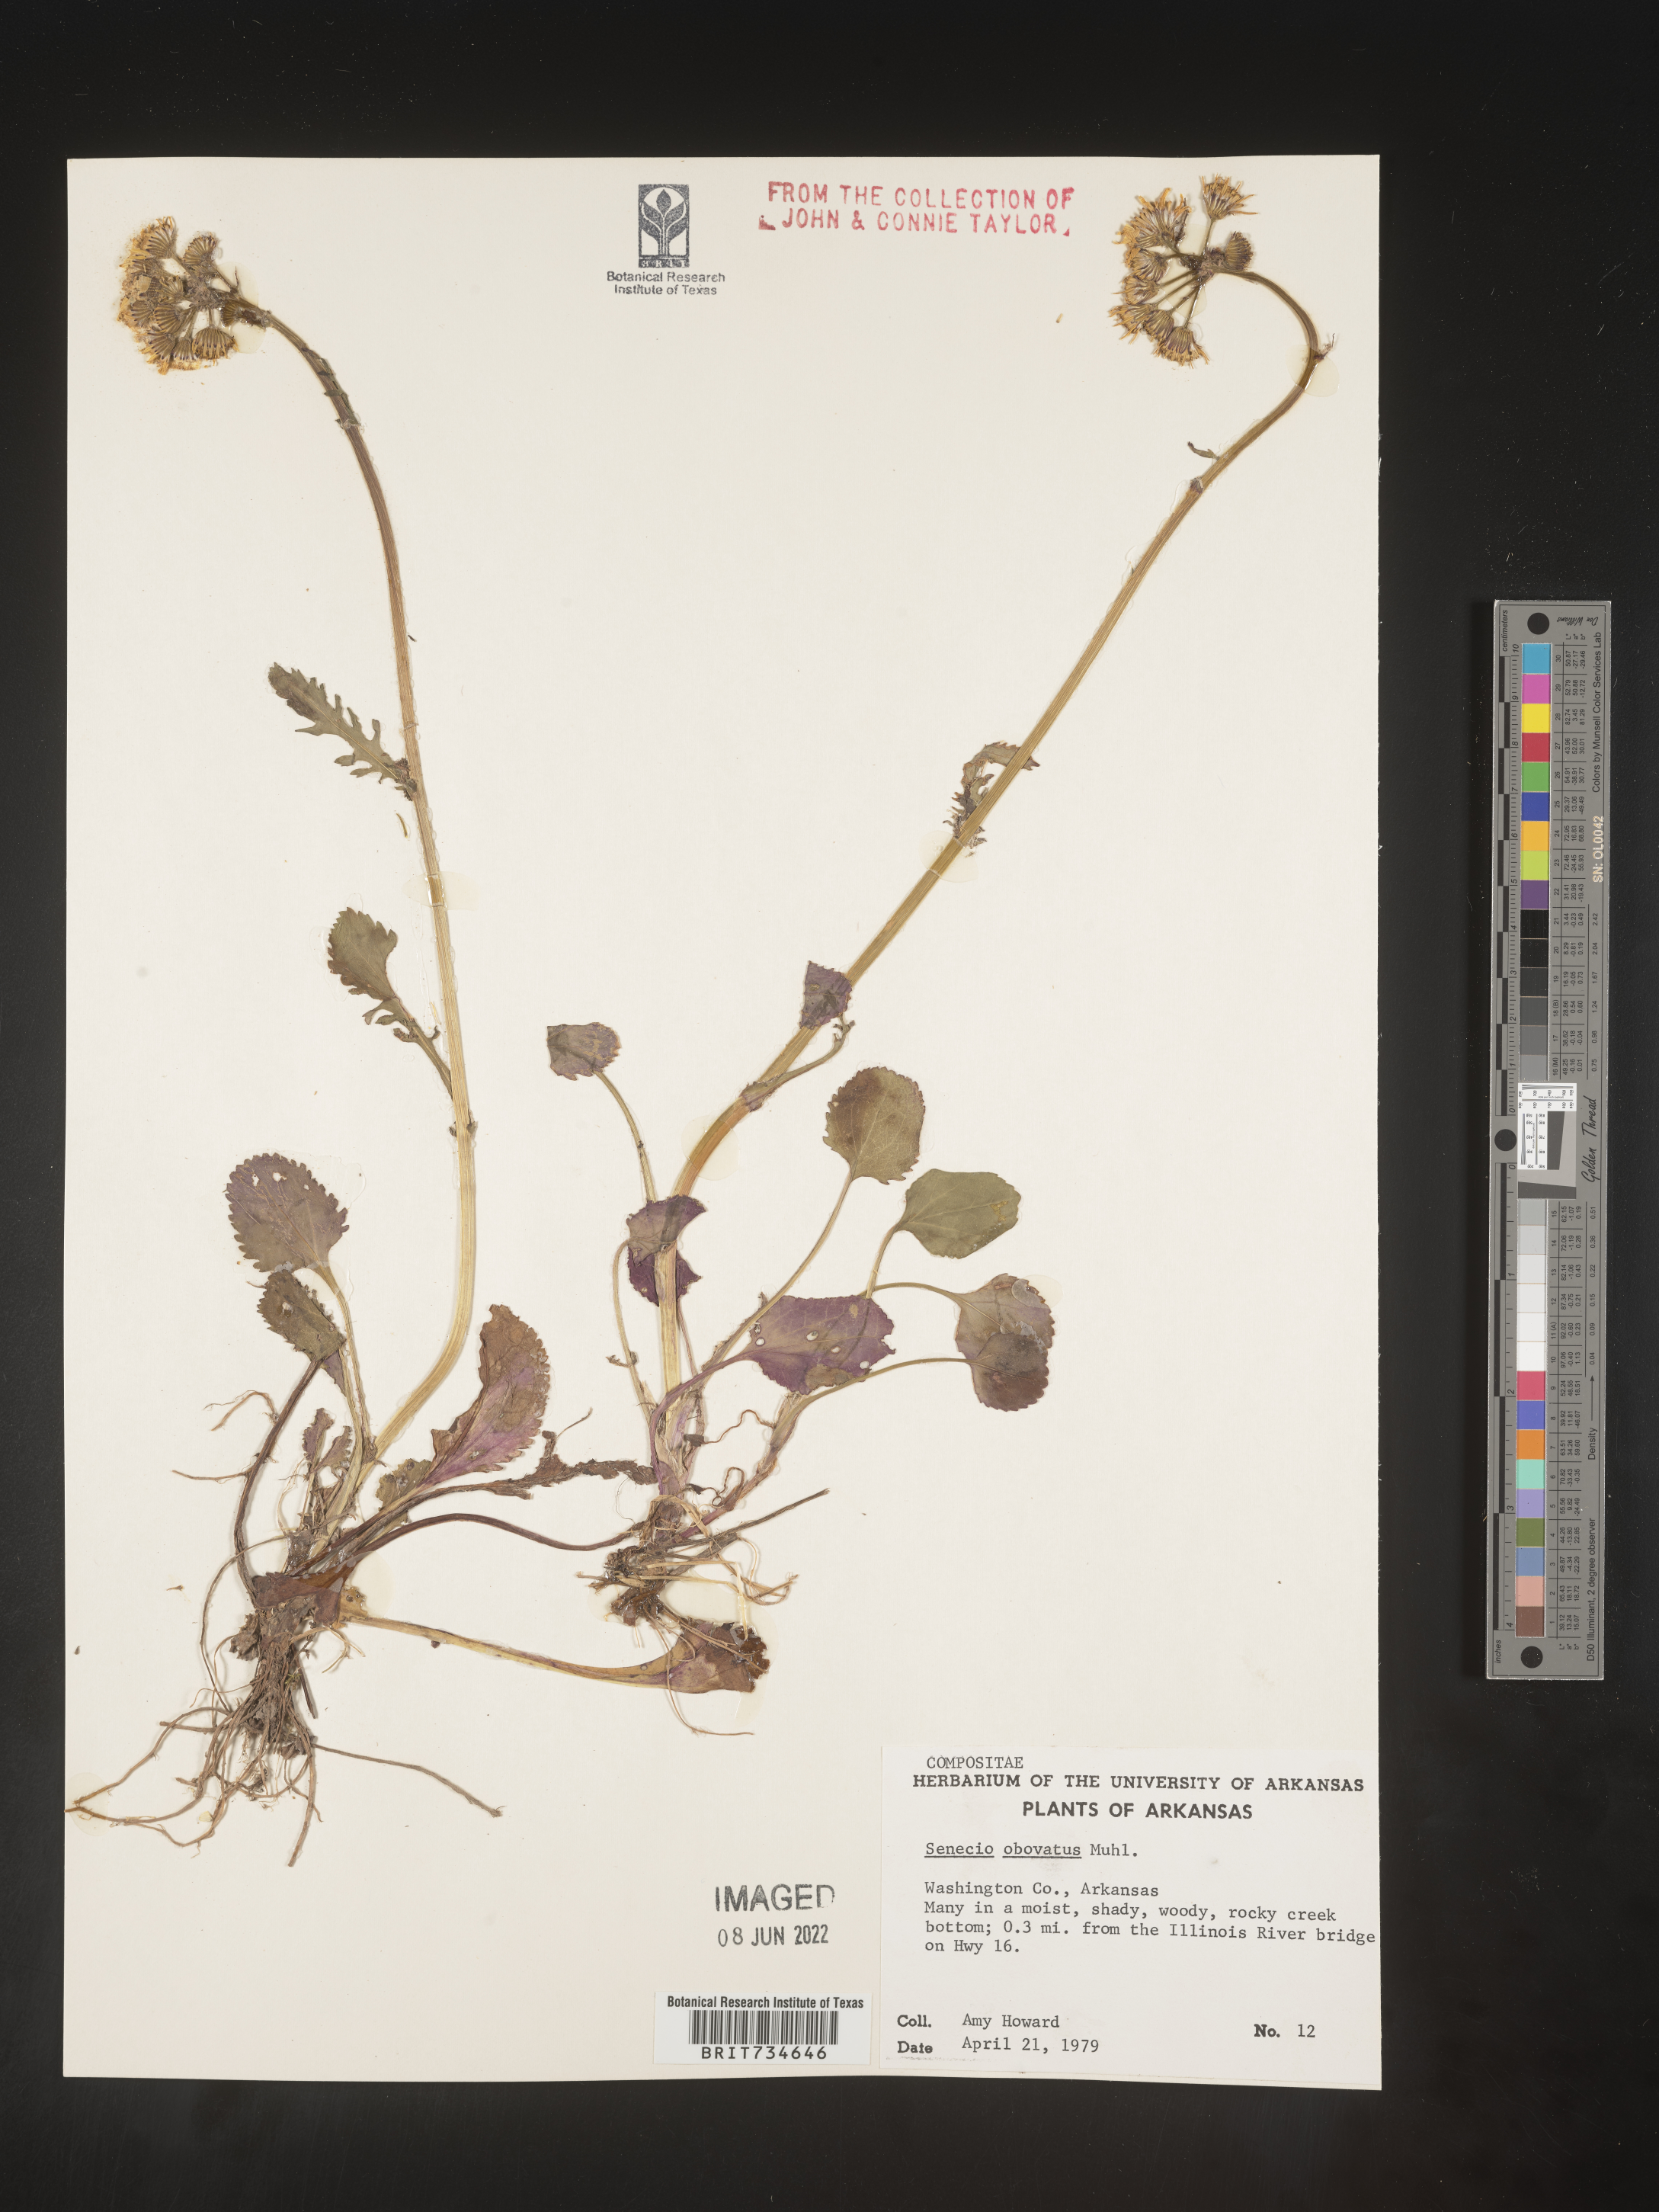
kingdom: Plantae
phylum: Tracheophyta
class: Magnoliopsida
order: Asterales
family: Asteraceae
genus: Packera
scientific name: Packera obovata
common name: Round-leaf ragwort
